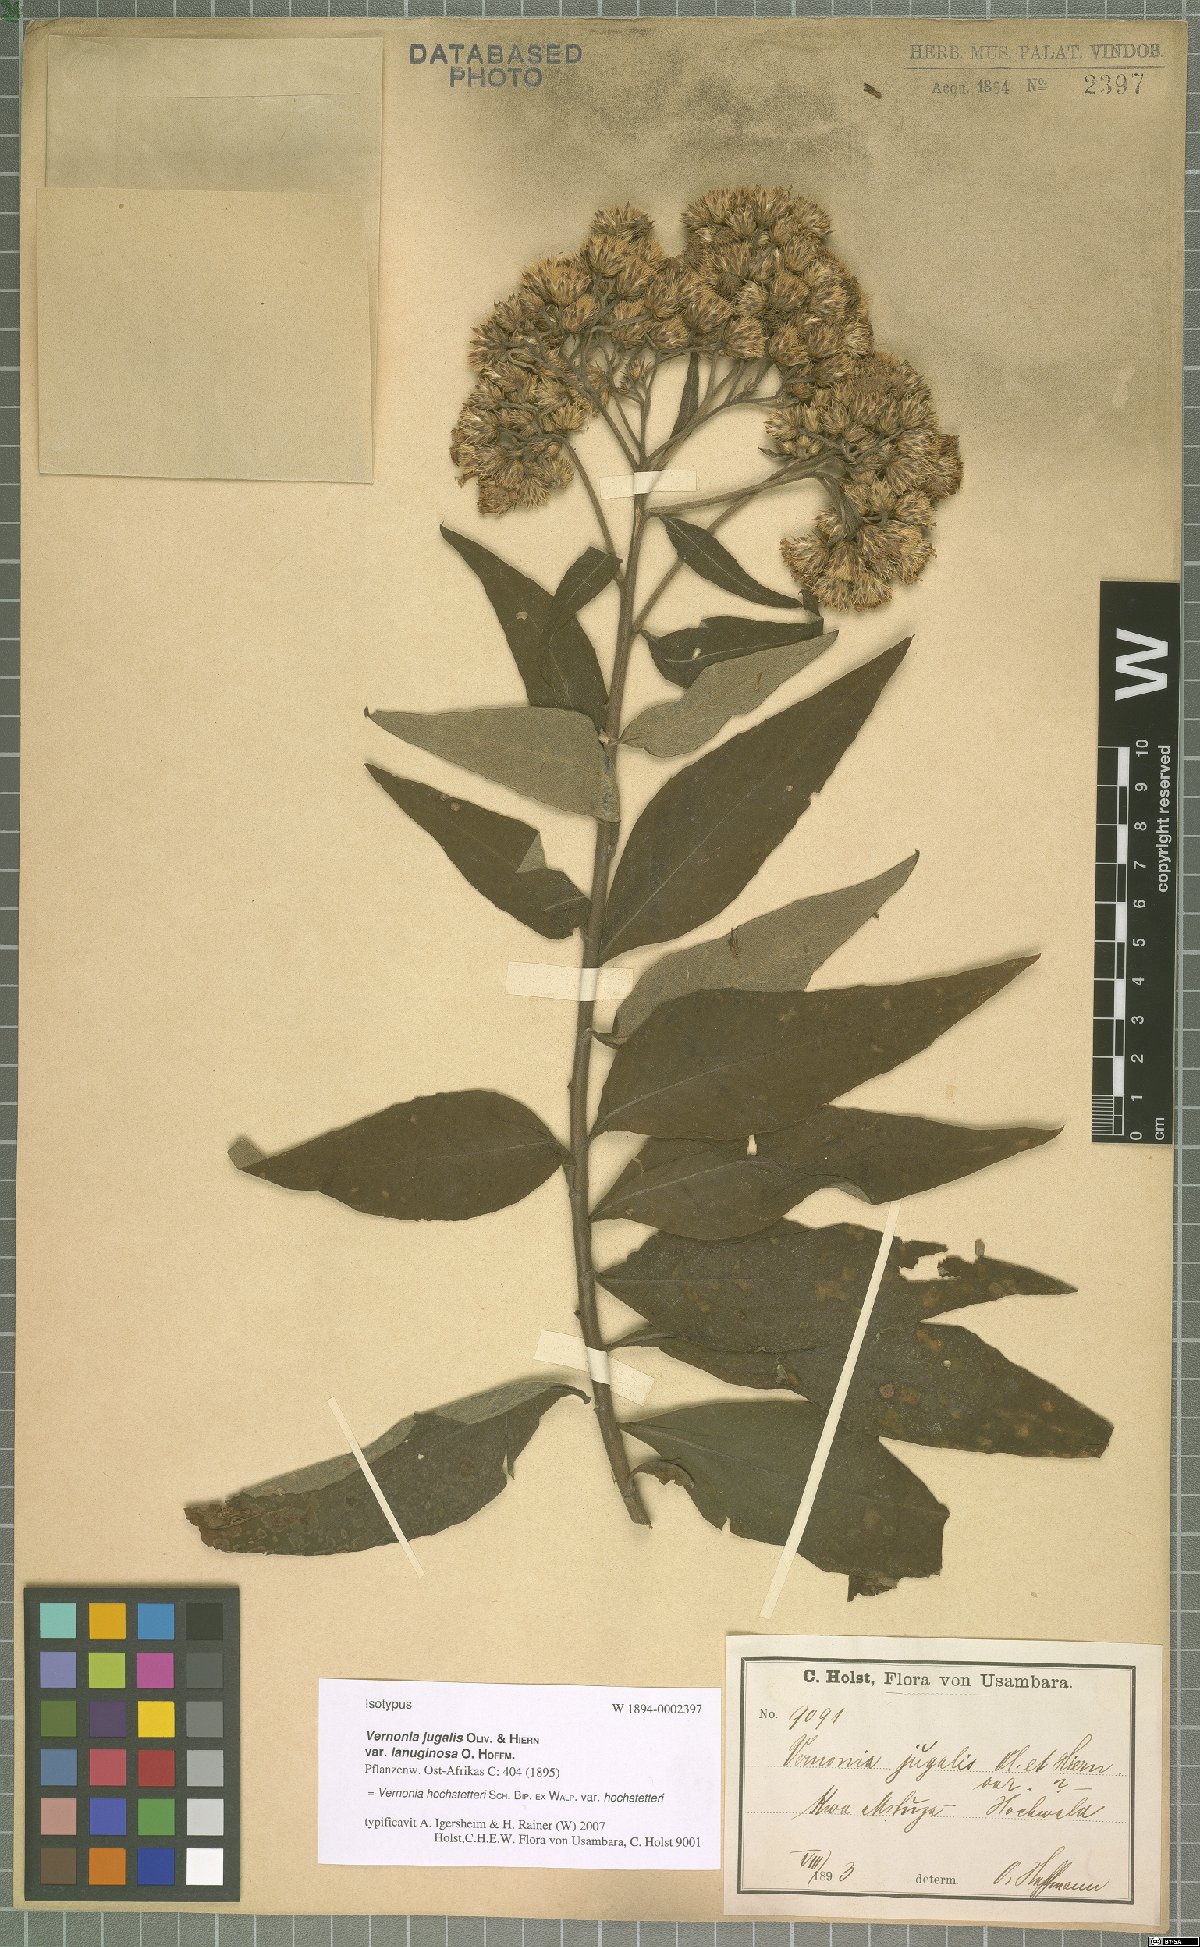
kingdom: Plantae
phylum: Tracheophyta
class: Magnoliopsida
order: Asterales
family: Asteraceae
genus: Vernonia
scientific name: Vernonia hochstetteri
